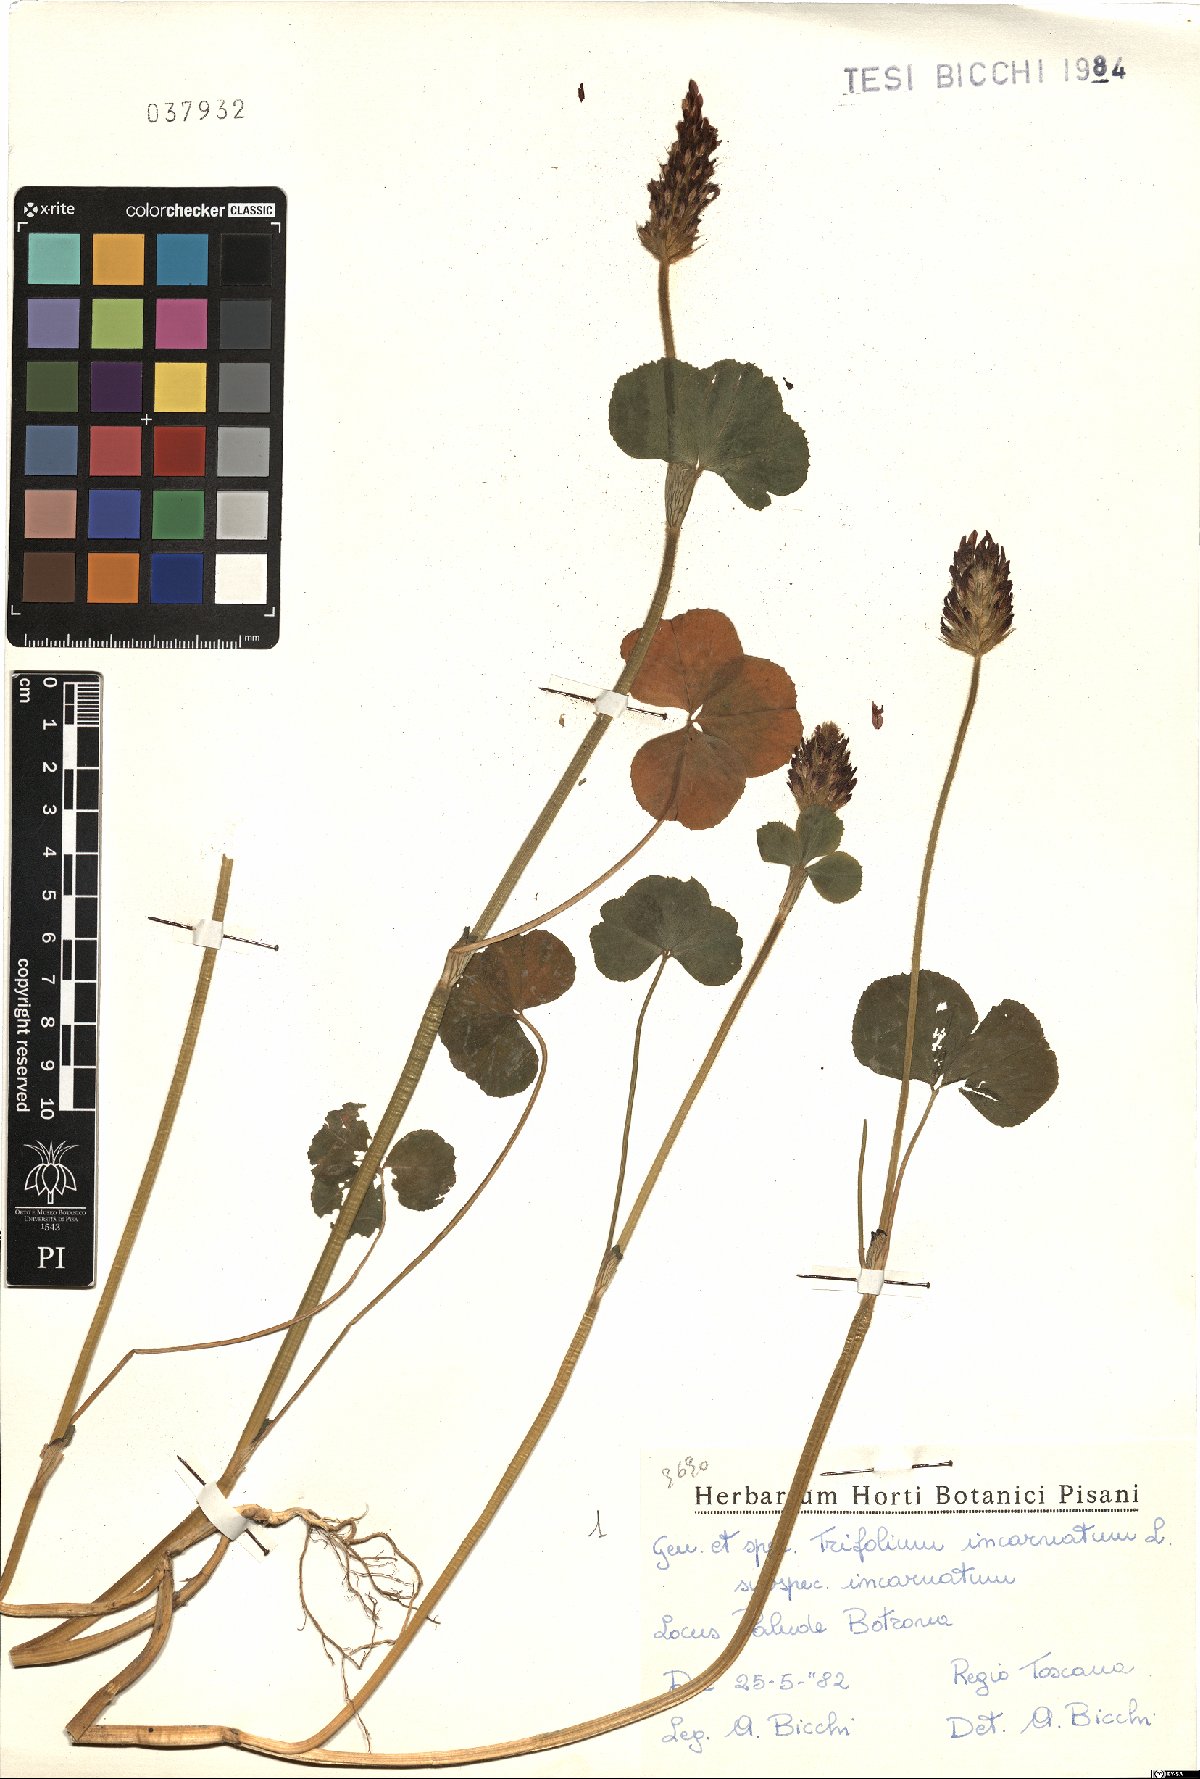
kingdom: Plantae
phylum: Tracheophyta
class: Magnoliopsida
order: Fabales
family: Fabaceae
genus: Trifolium
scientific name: Trifolium incarnatum
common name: Crimson clover
